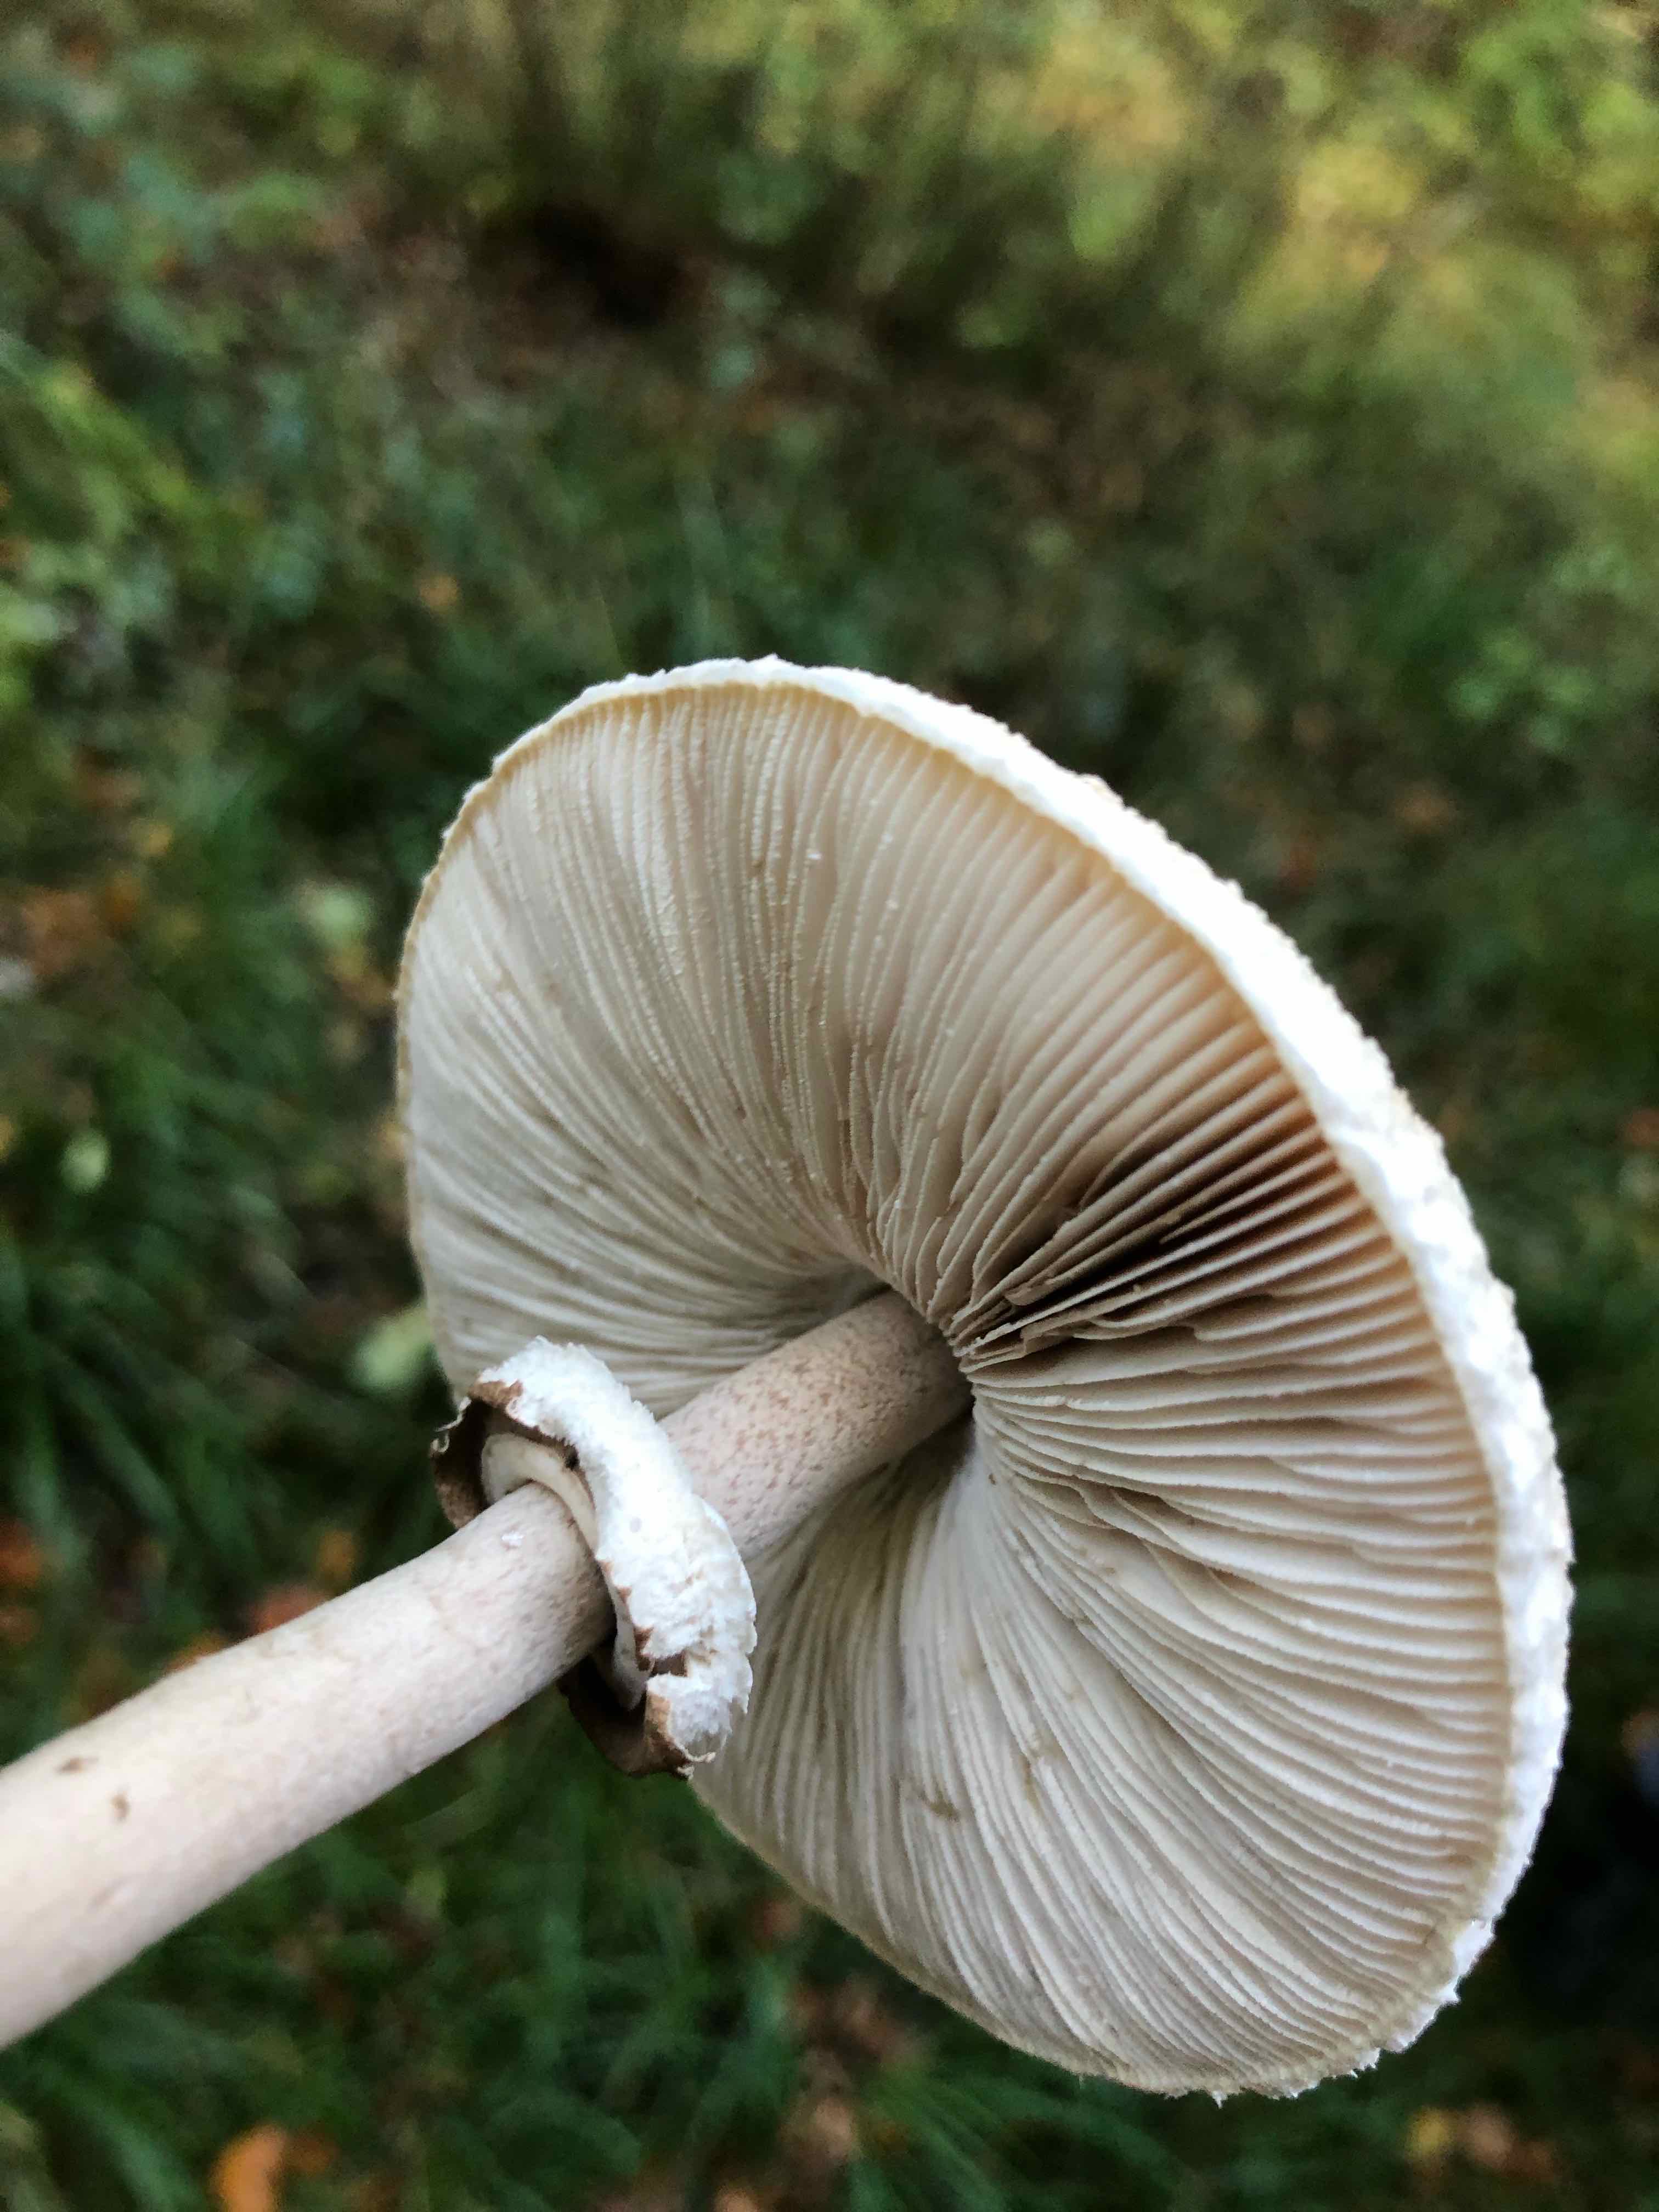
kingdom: Fungi
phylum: Basidiomycota
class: Agaricomycetes
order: Agaricales
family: Agaricaceae
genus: Macrolepiota
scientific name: Macrolepiota mastoidea
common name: puklet kæmpeparasolhat
